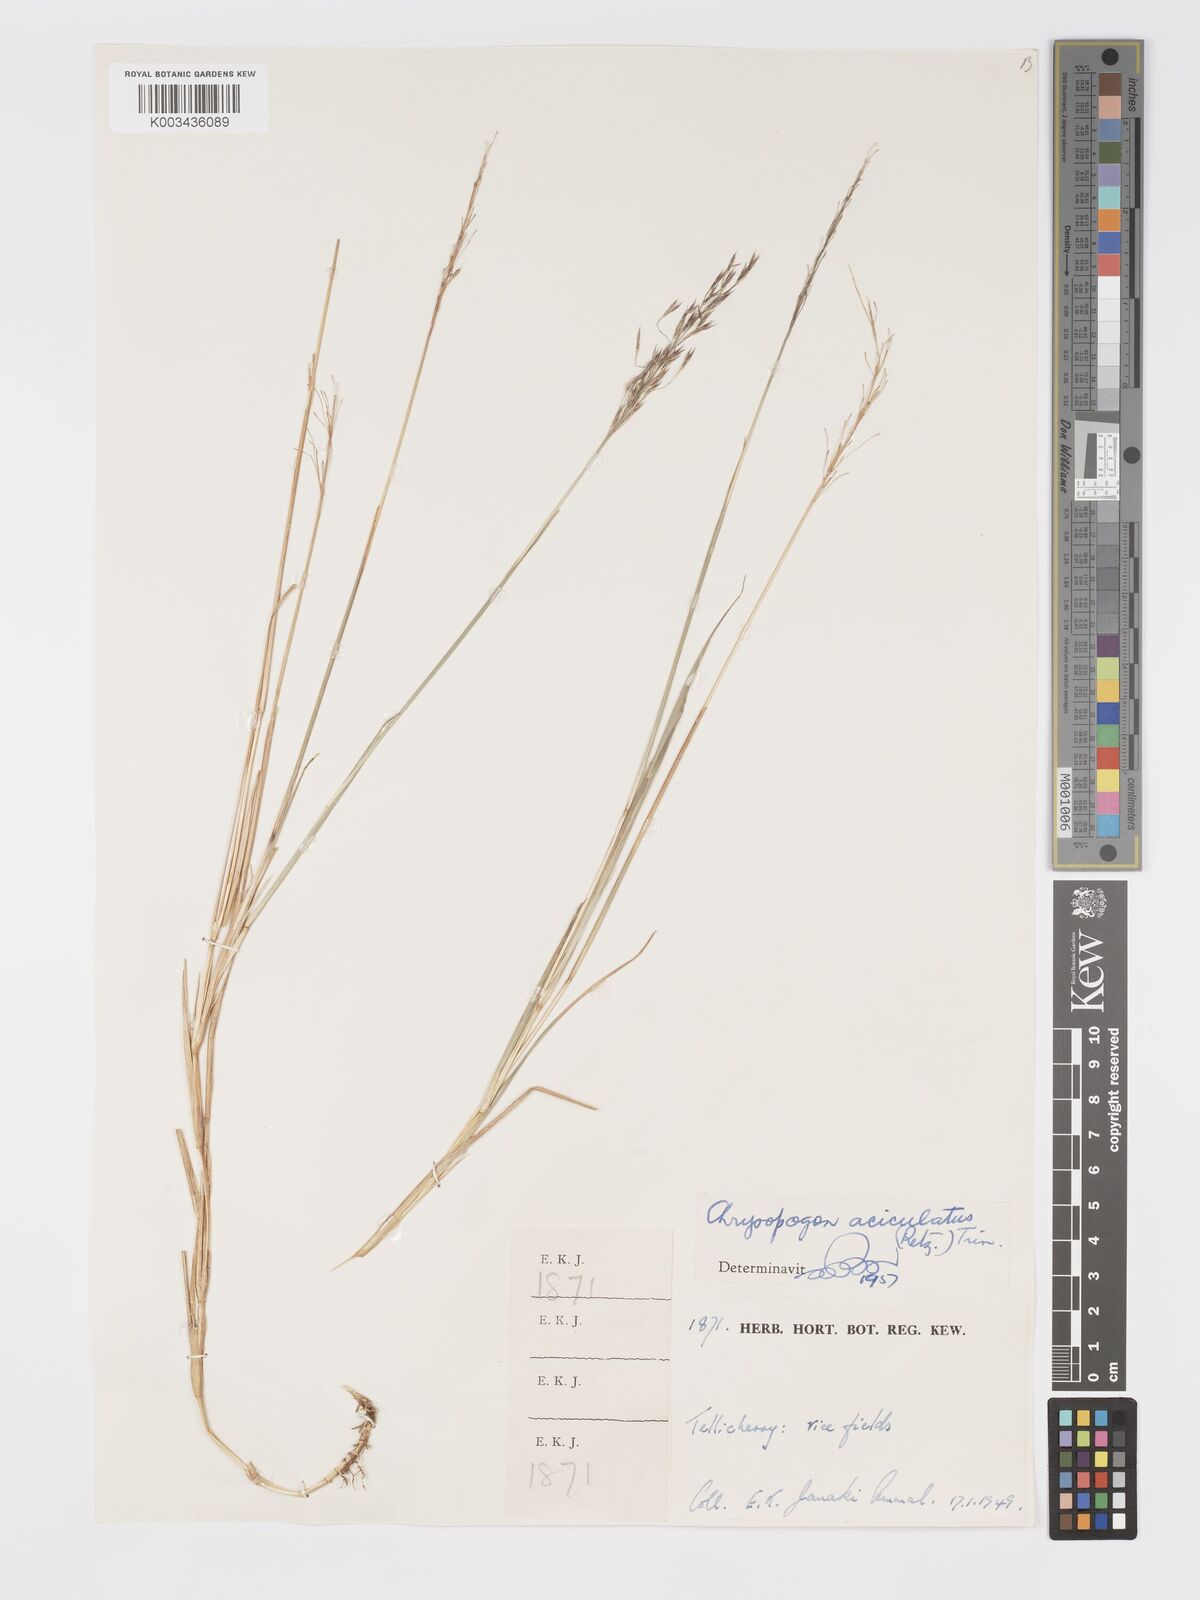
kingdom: Plantae
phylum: Tracheophyta
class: Liliopsida
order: Poales
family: Poaceae
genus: Chrysopogon
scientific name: Chrysopogon aciculatus
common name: Pilipiliula
